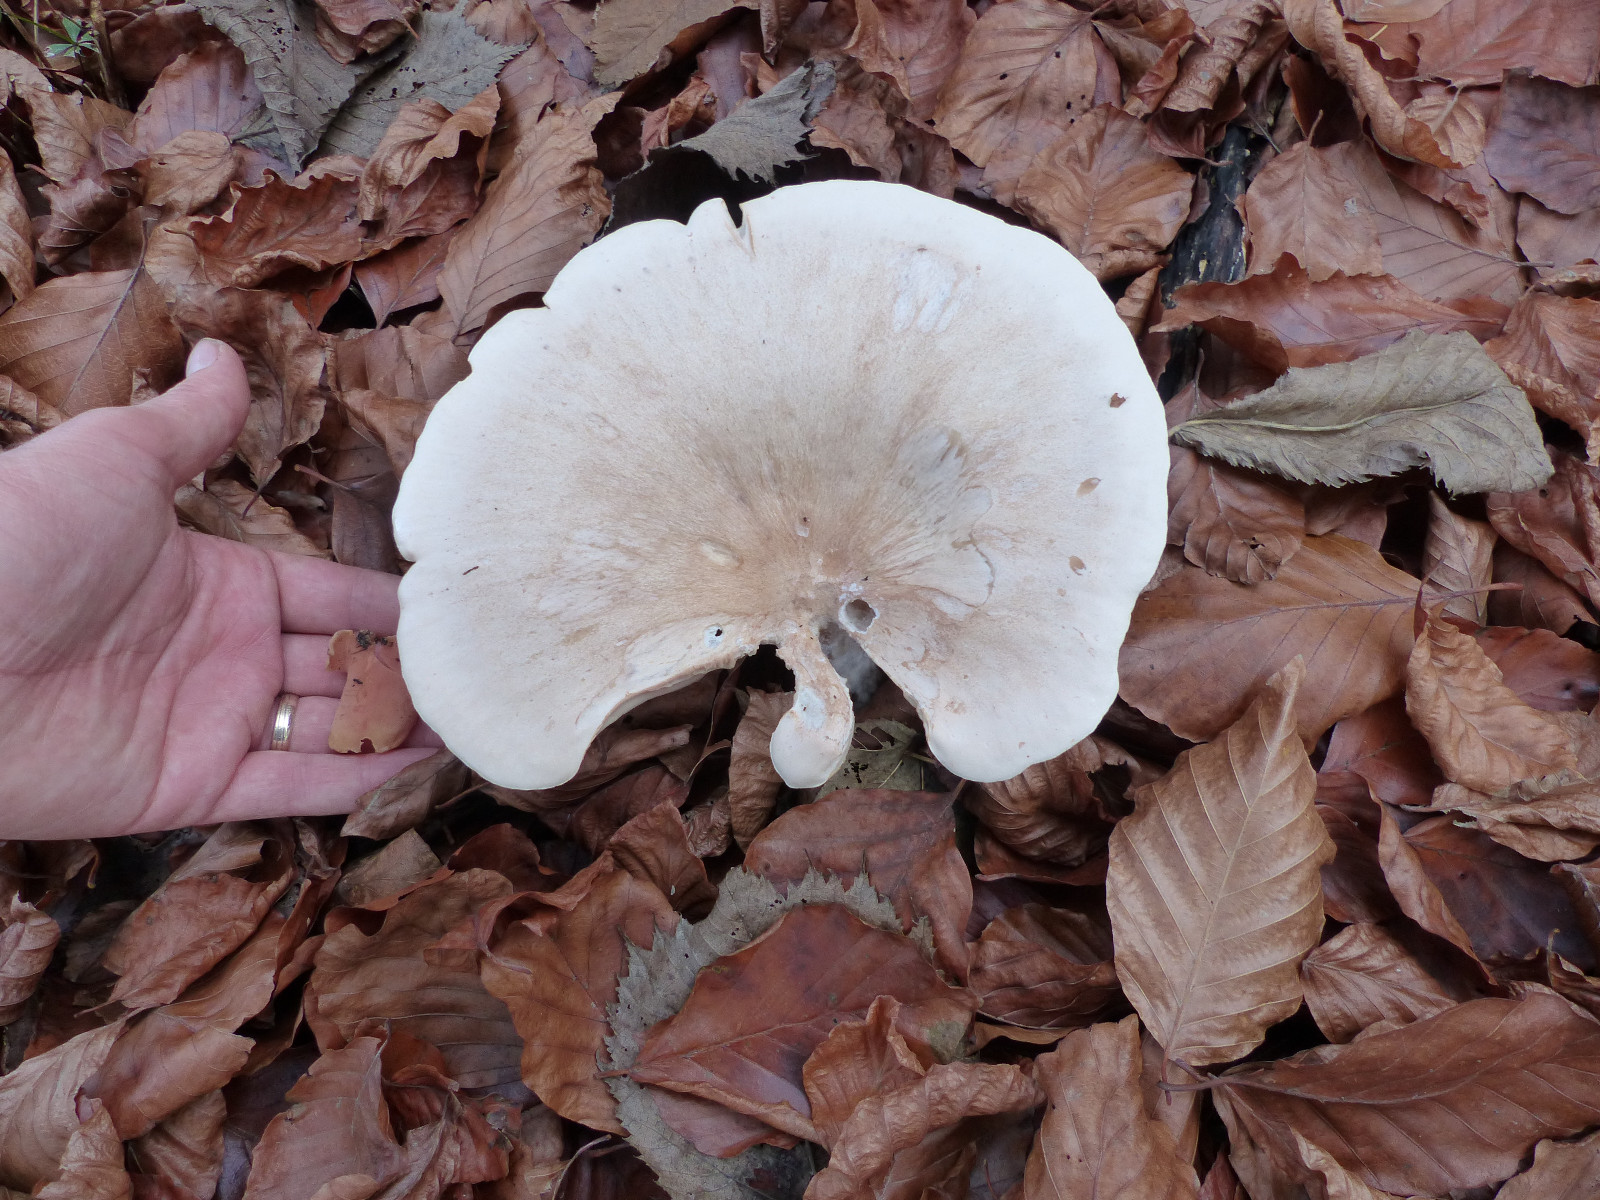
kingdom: Fungi
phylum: Basidiomycota
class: Agaricomycetes
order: Agaricales
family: Tricholomataceae
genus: Aspropaxillus
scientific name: Aspropaxillus giganteus
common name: kæmpe-tragtridderhat
